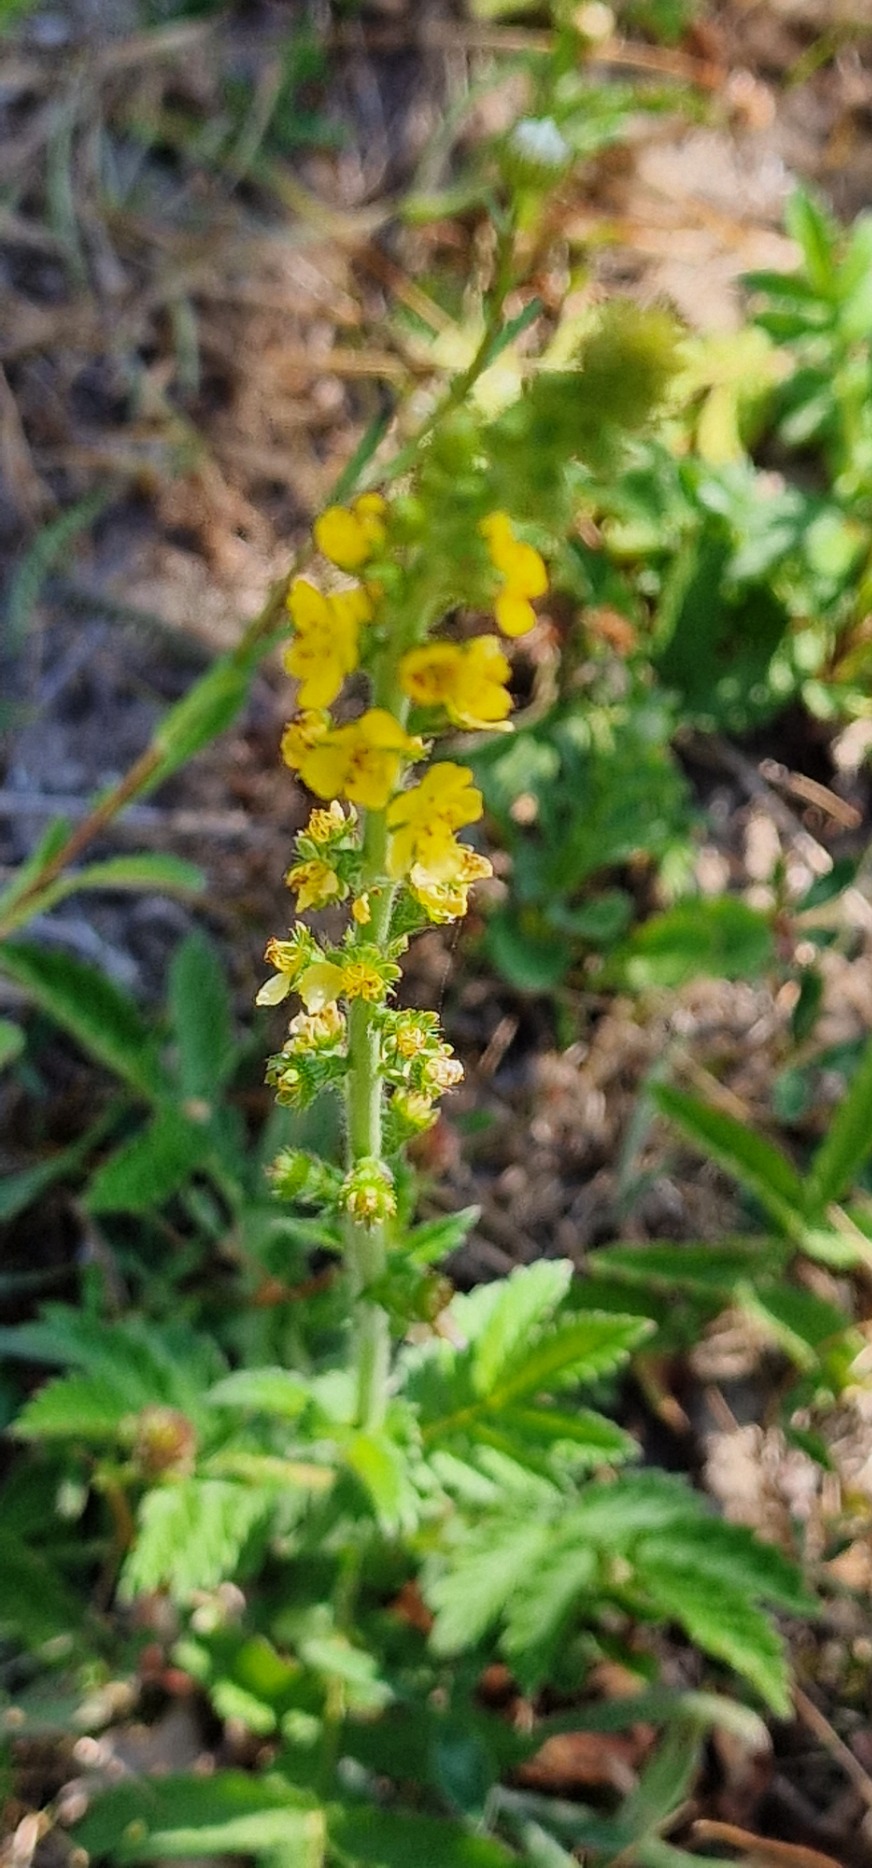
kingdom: Plantae
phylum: Tracheophyta
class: Magnoliopsida
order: Rosales
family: Rosaceae
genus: Agrimonia
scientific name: Agrimonia eupatoria
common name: Almindelig agermåne
